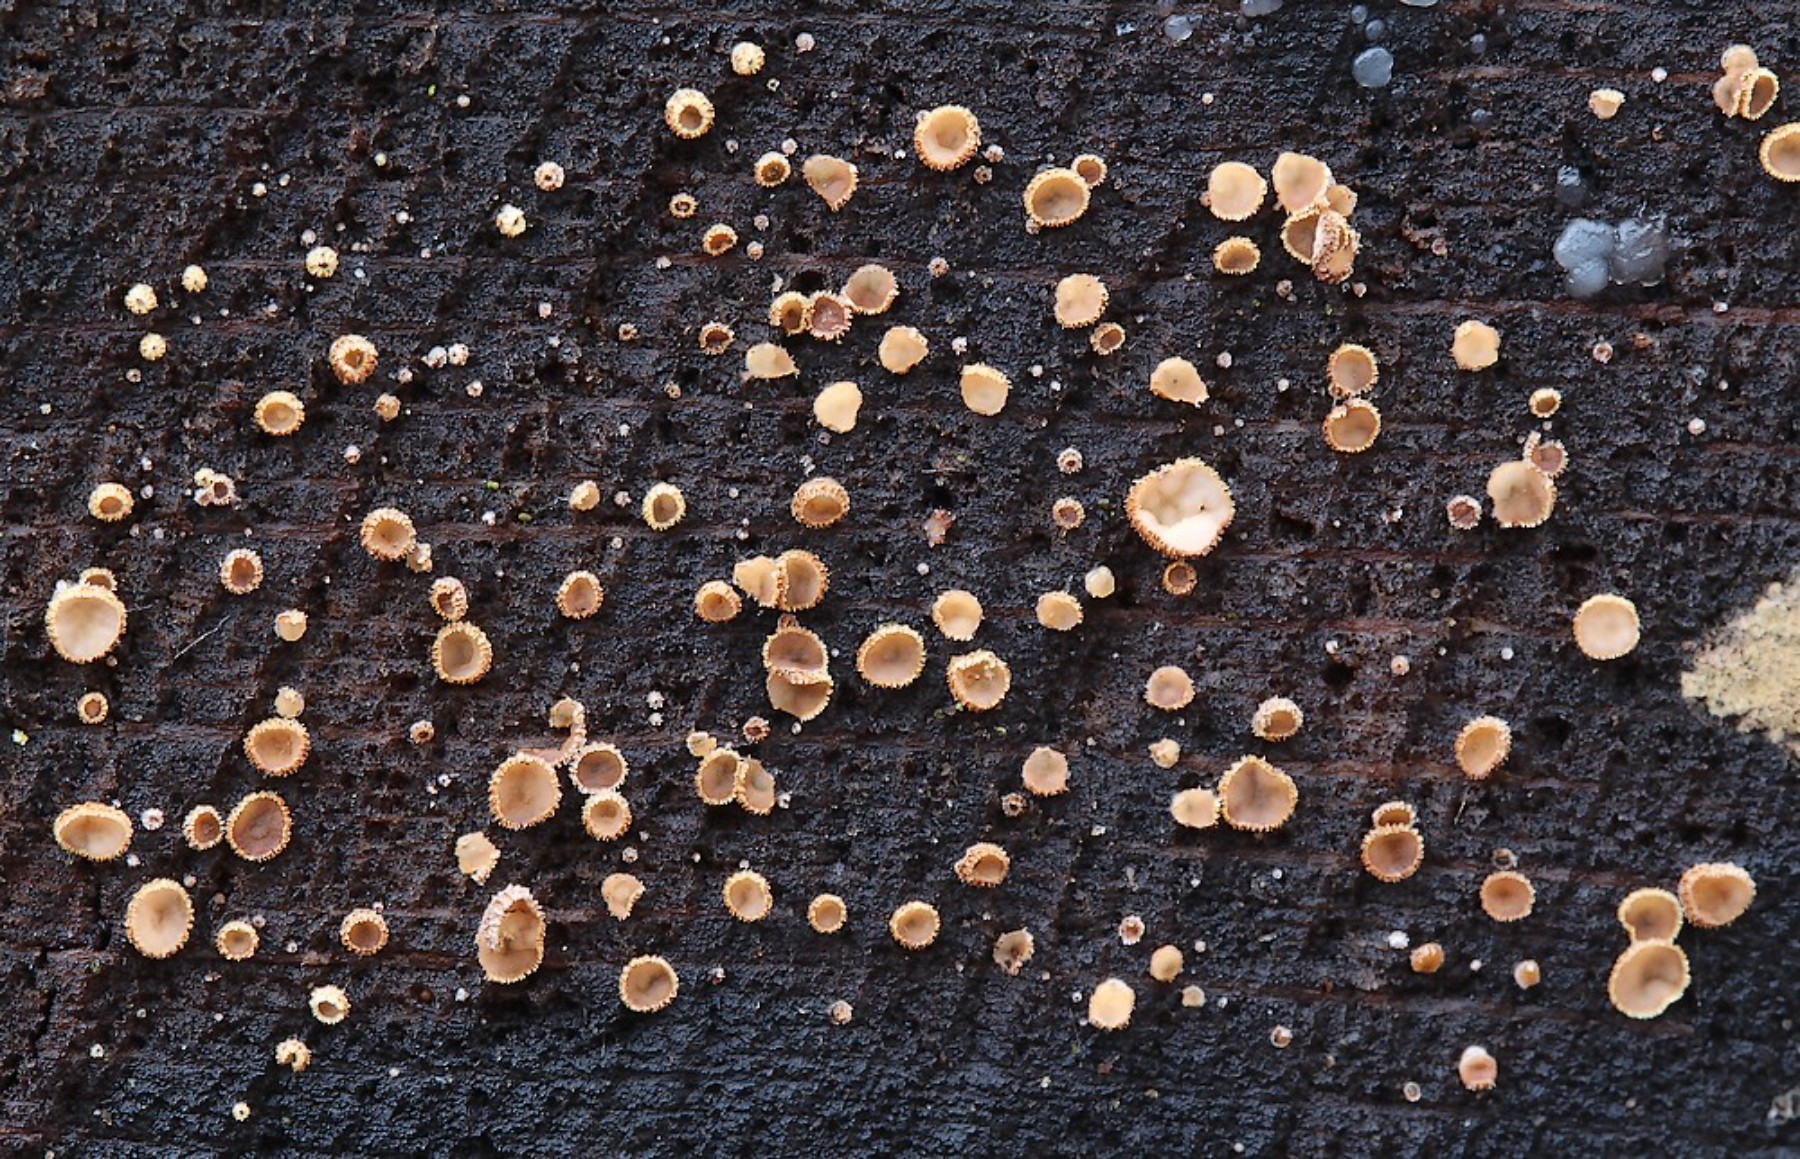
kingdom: Fungi
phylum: Ascomycota
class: Leotiomycetes
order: Helotiales
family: Lachnaceae
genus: Trichopeziza
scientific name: Trichopeziza subsulphurea
